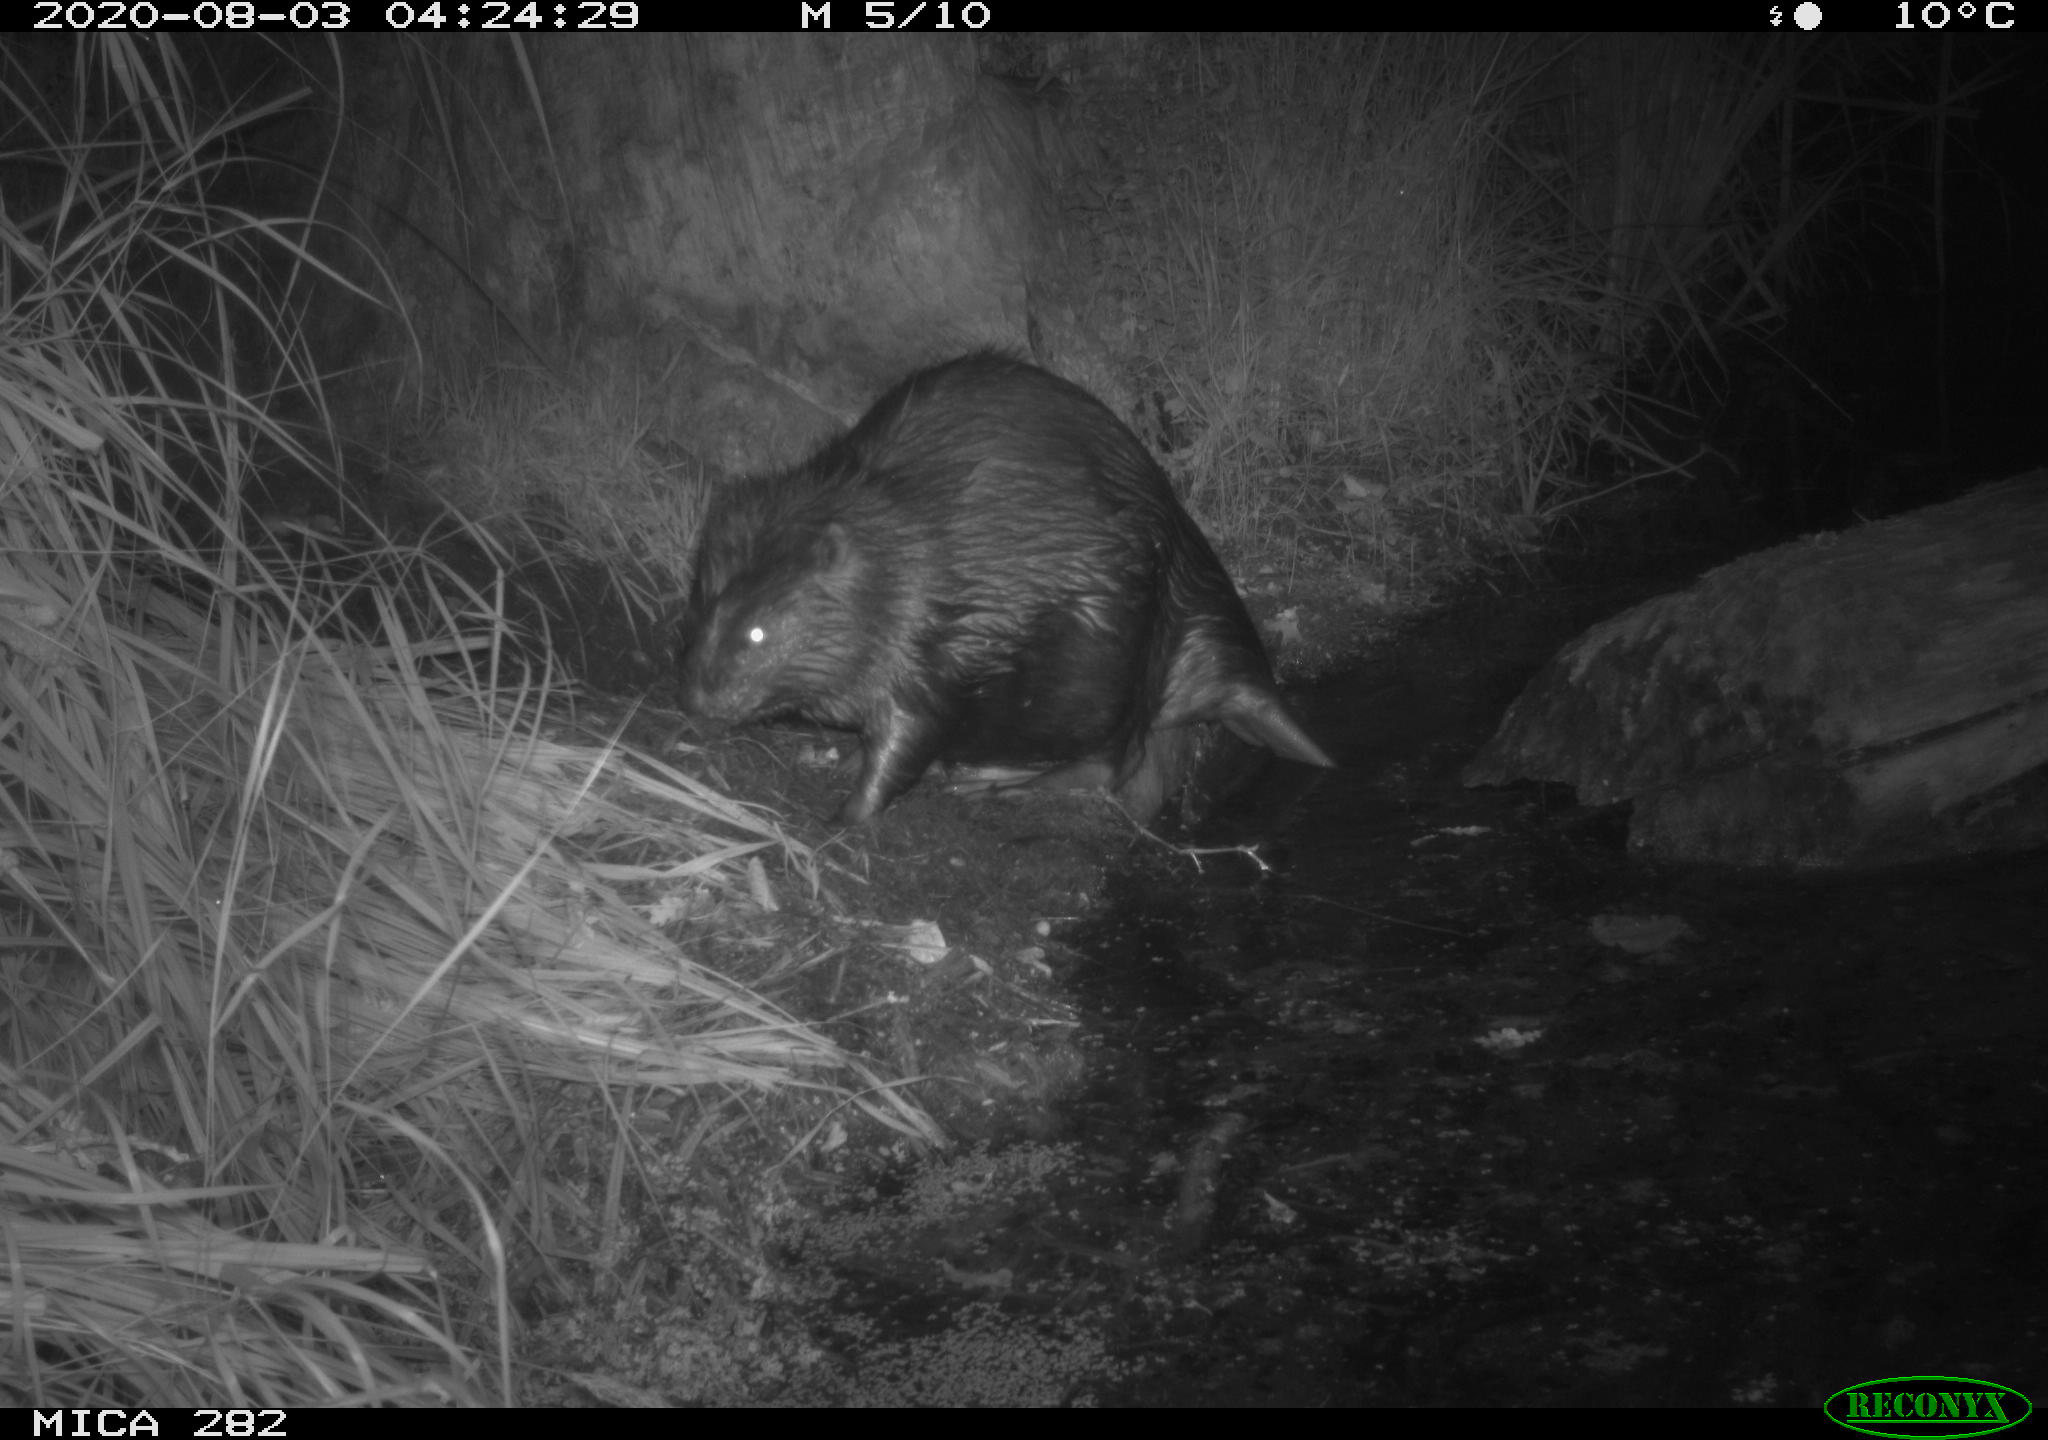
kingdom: Animalia
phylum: Chordata
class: Mammalia
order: Rodentia
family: Castoridae
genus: Castor
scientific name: Castor fiber
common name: Eurasian beaver
